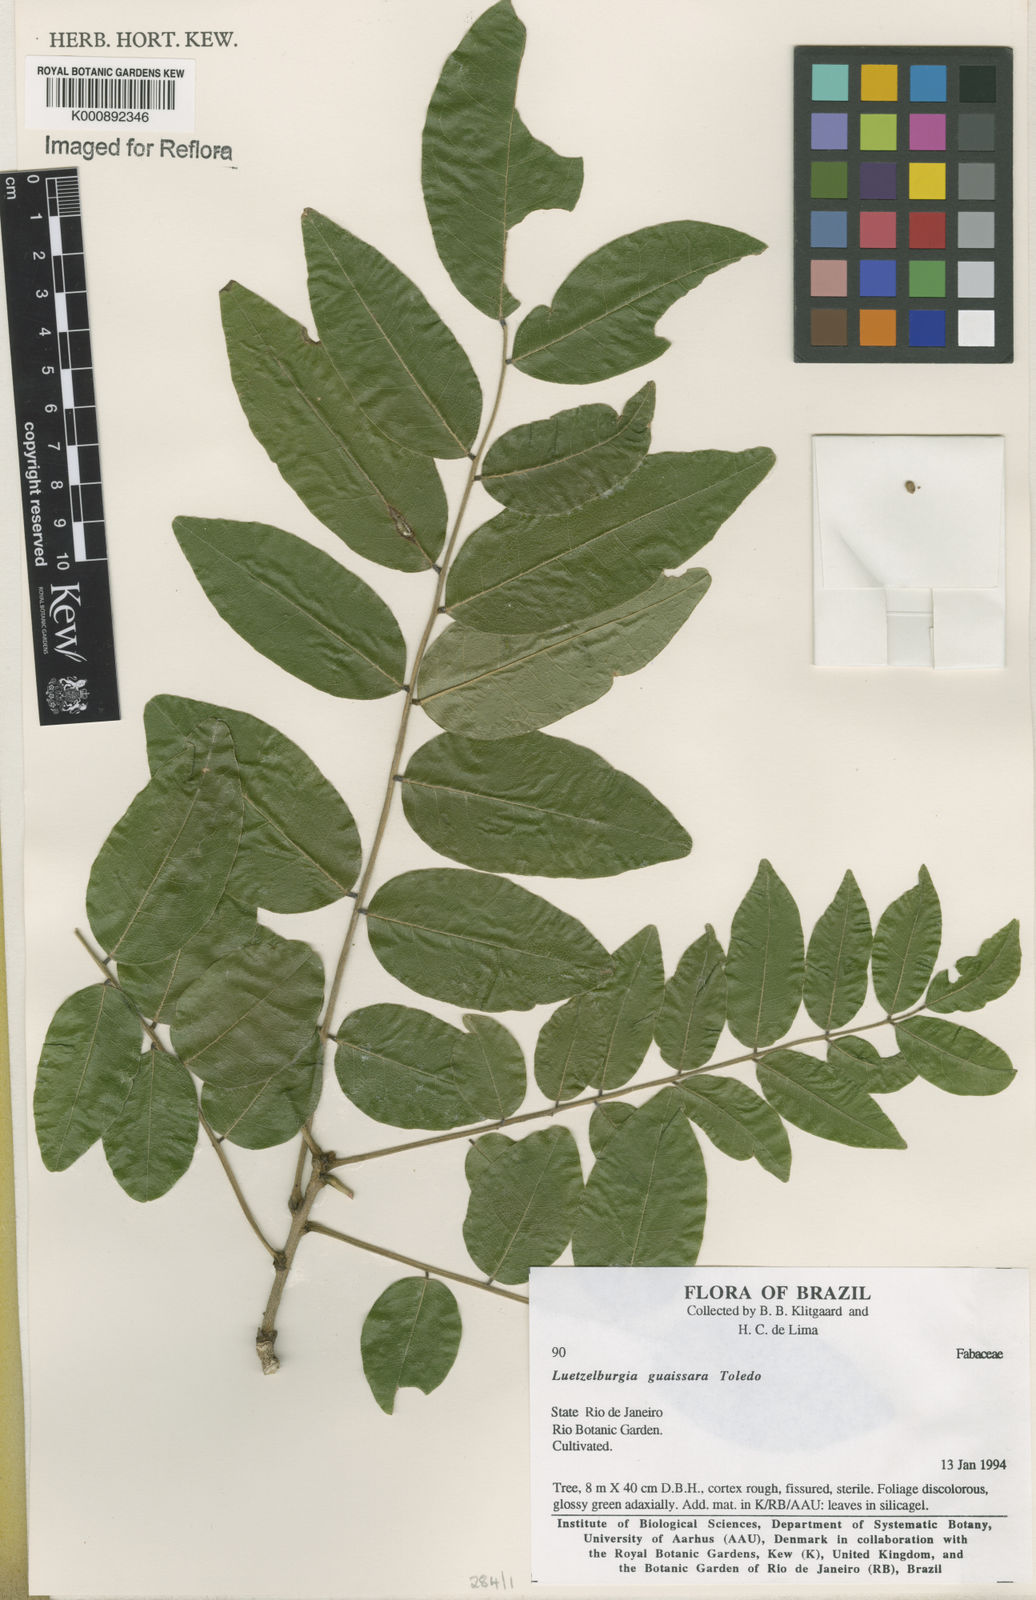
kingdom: Plantae
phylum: Tracheophyta
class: Magnoliopsida
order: Fabales
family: Fabaceae
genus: Luetzelburgia
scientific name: Luetzelburgia guaissara
